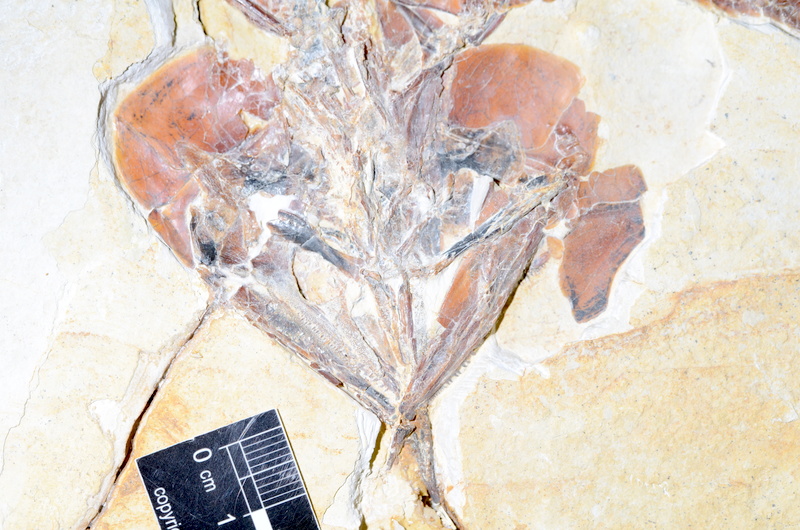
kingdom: Animalia
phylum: Chordata
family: Aspidorhynchidae
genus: Aspidorhynchus
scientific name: Aspidorhynchus sanzenbacheri
